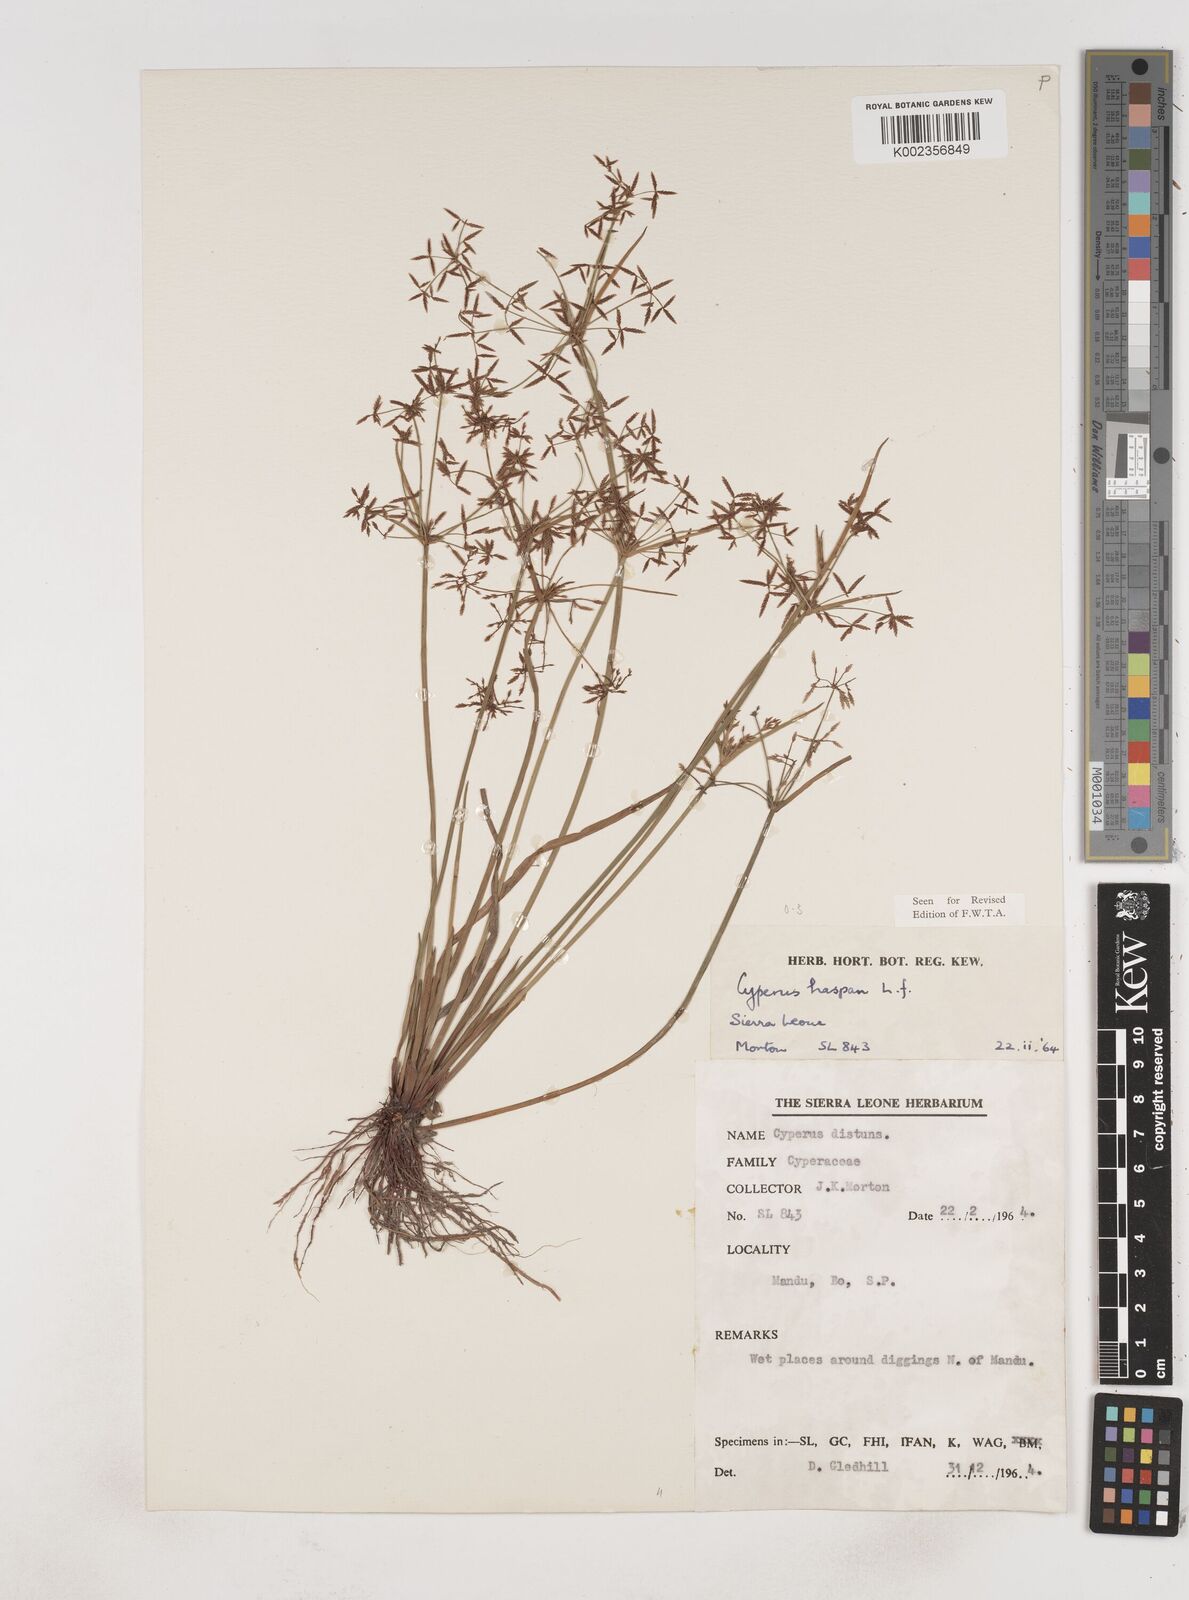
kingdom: Plantae
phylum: Tracheophyta
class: Liliopsida
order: Poales
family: Cyperaceae
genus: Cyperus
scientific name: Cyperus haspan
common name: Haspan flatsedge
